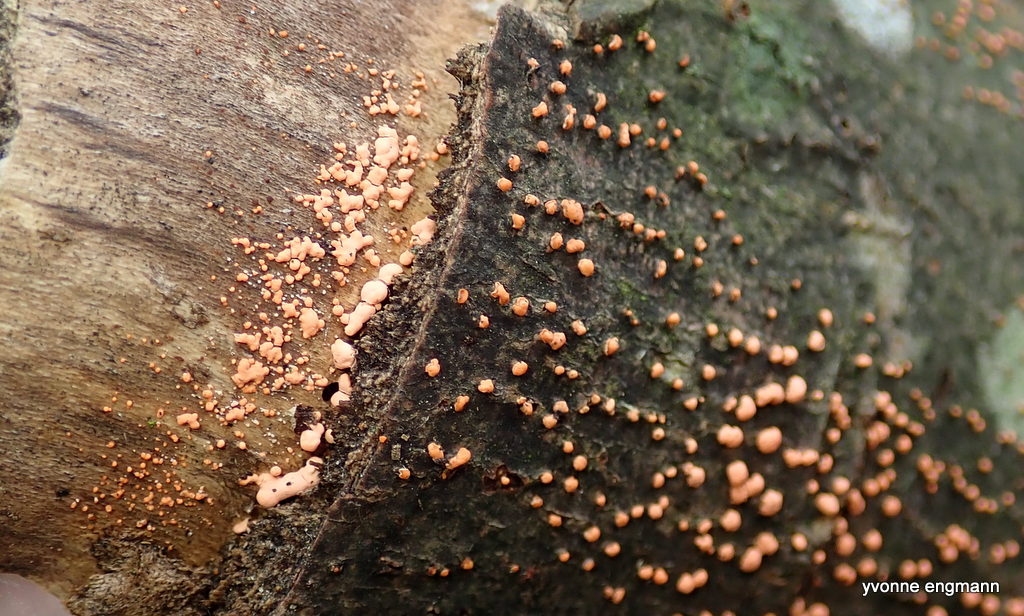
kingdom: Fungi
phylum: Ascomycota
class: Sordariomycetes
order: Hypocreales
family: Nectriaceae
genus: Nectria
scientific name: Nectria cinnabarina
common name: almindelig cinnobersvamp
